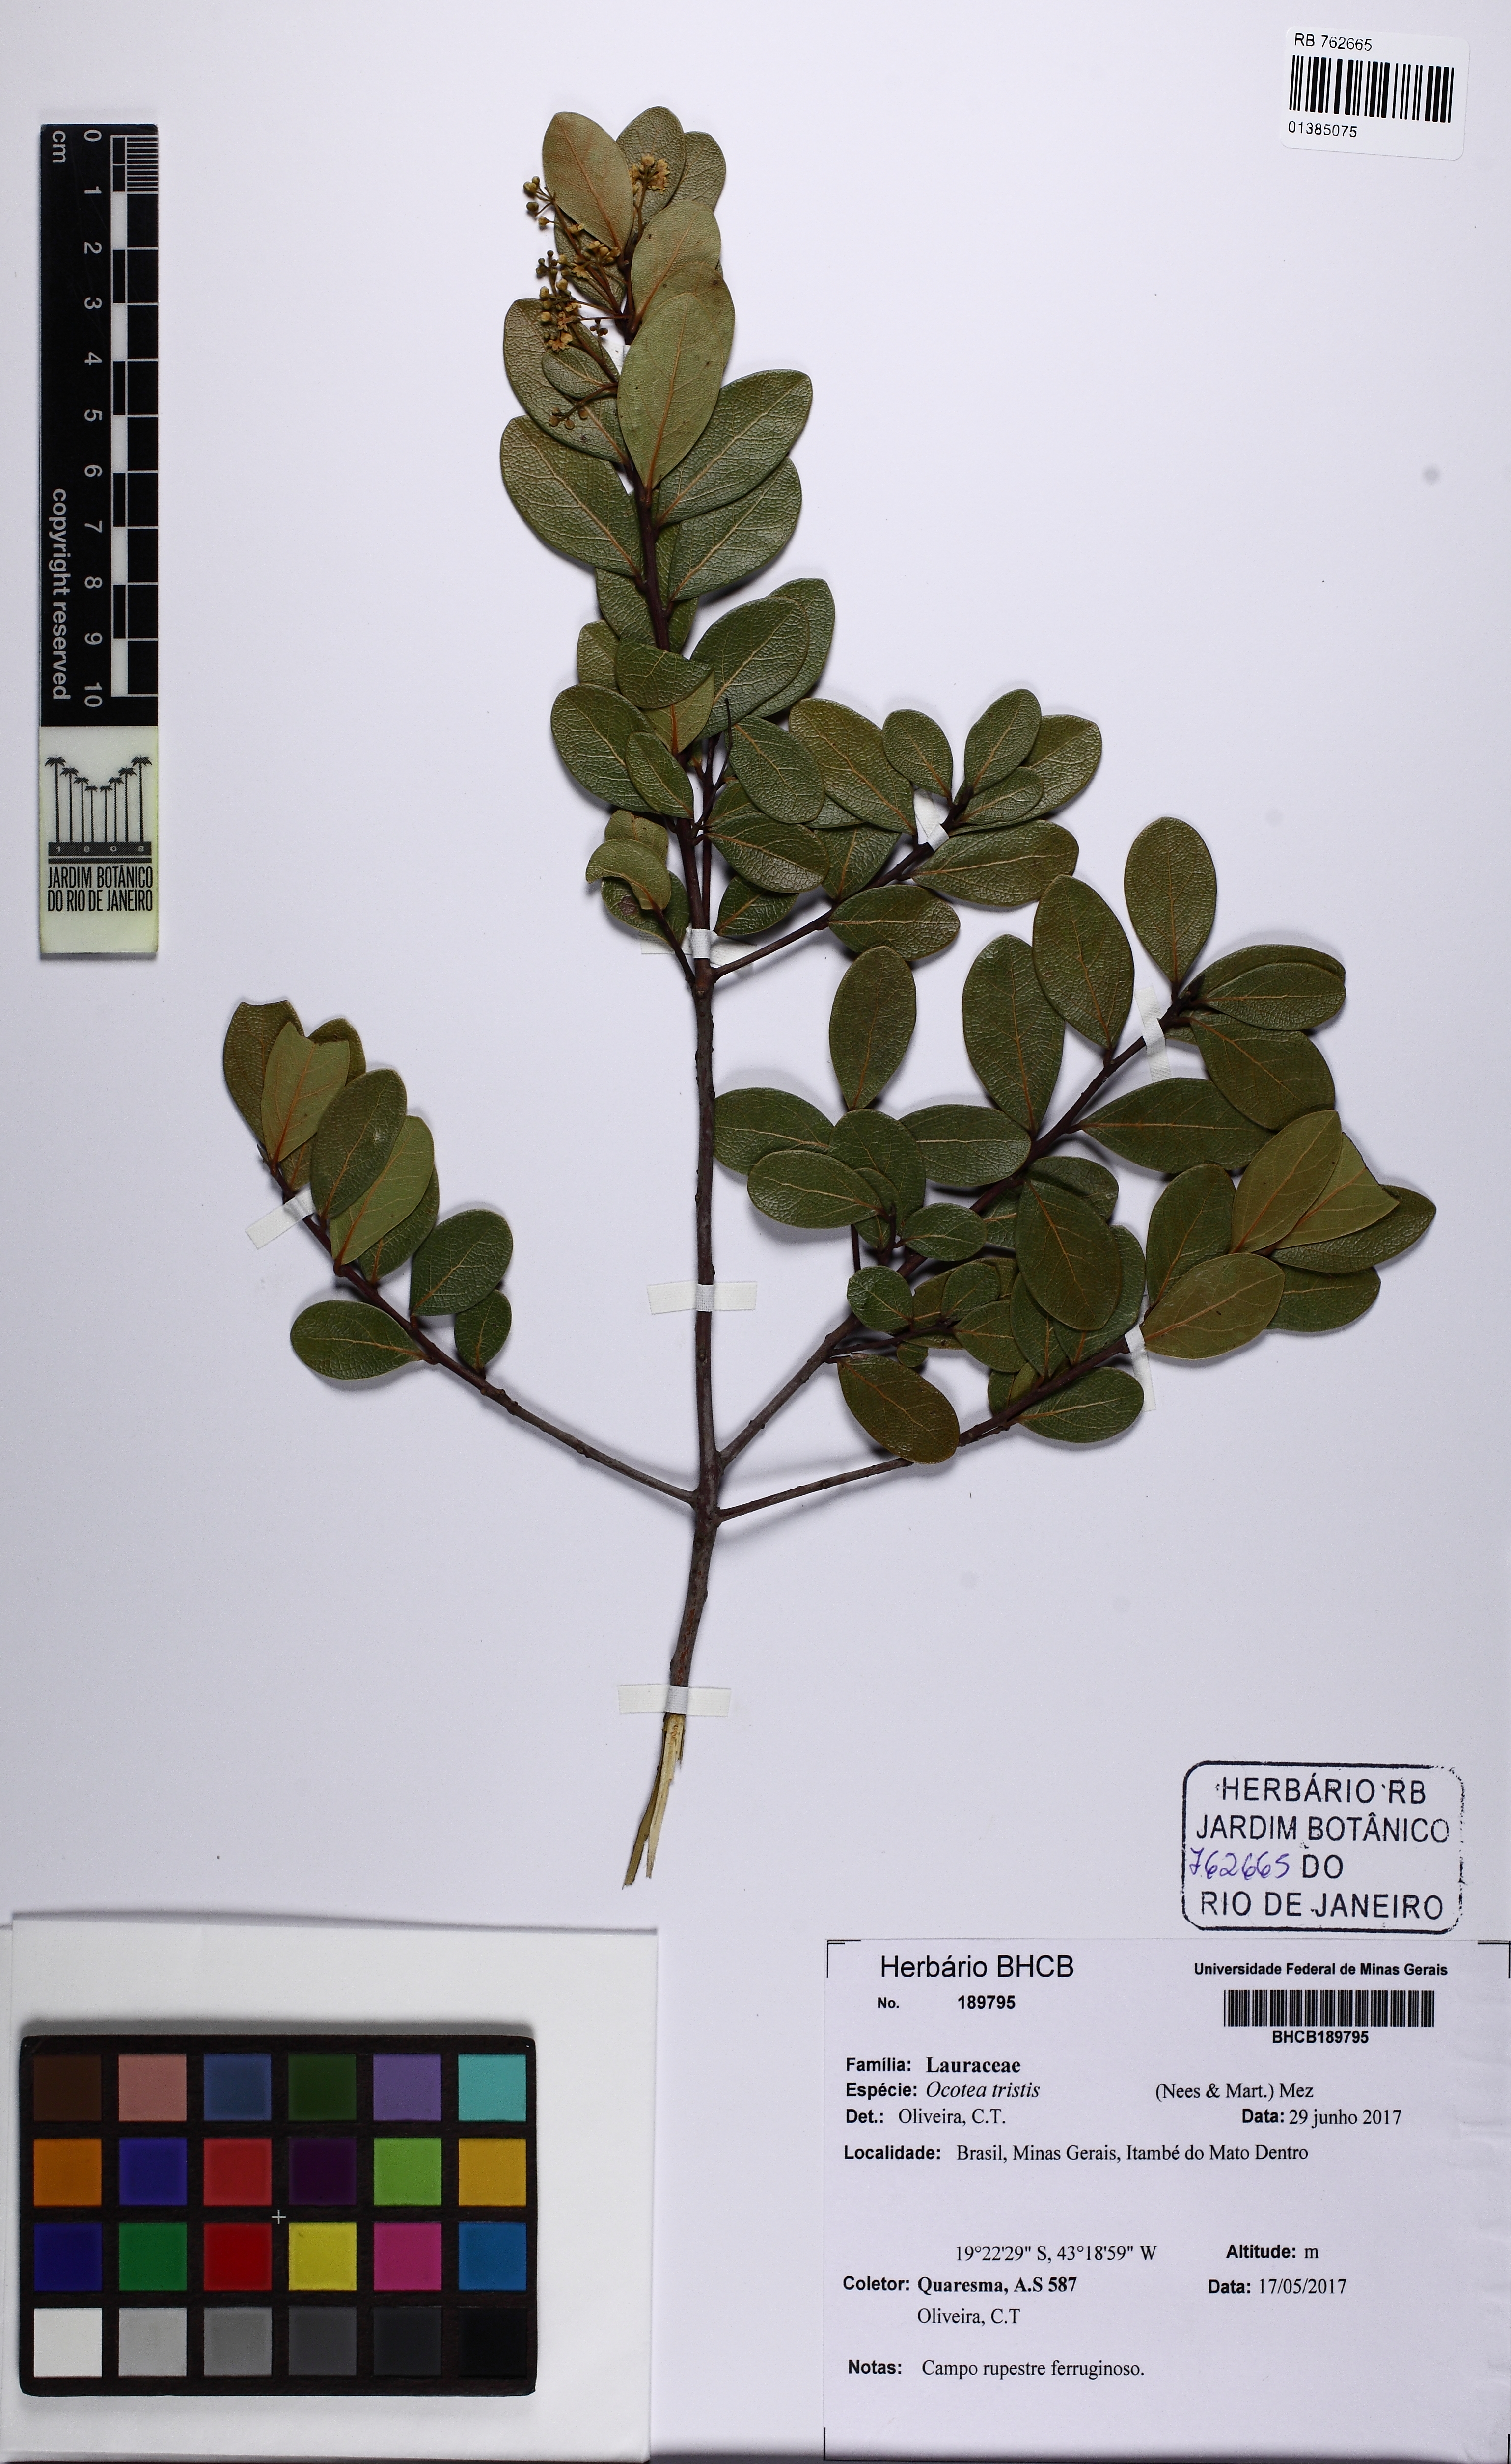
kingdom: Plantae
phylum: Tracheophyta
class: Magnoliopsida
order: Laurales
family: Lauraceae
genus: Mespilodaphne
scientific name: Mespilodaphne tristis
